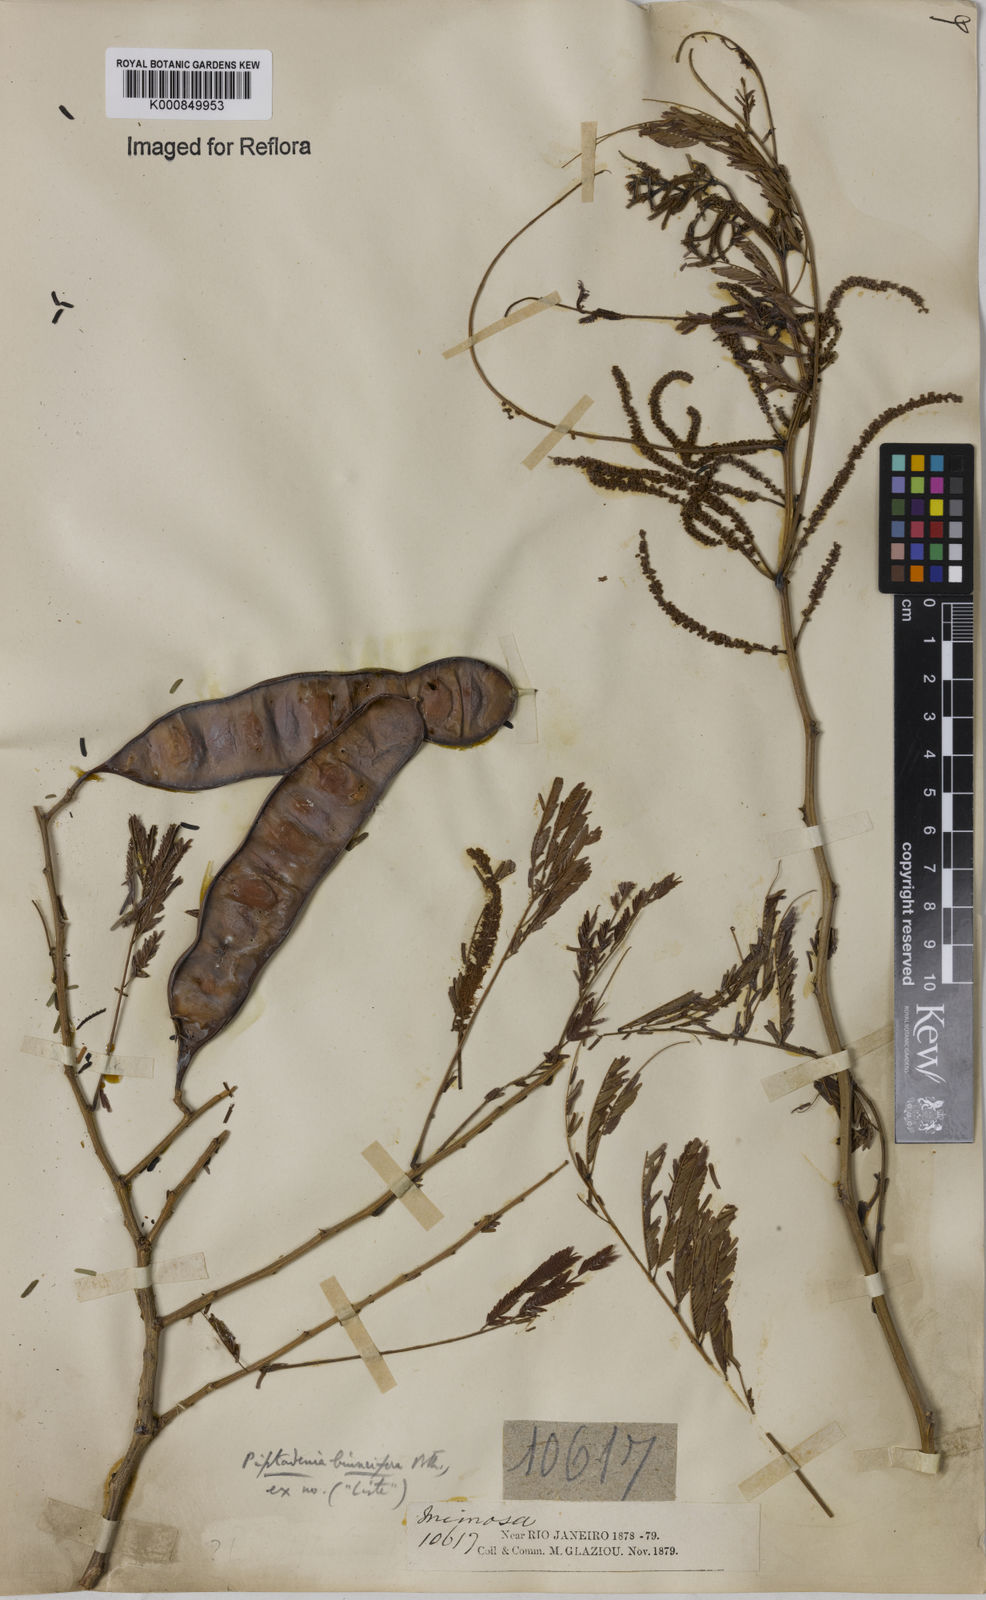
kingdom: Plantae
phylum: Tracheophyta
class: Magnoliopsida
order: Fabales
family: Fabaceae
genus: Lachesiodendron
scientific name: Lachesiodendron viridiflorum
